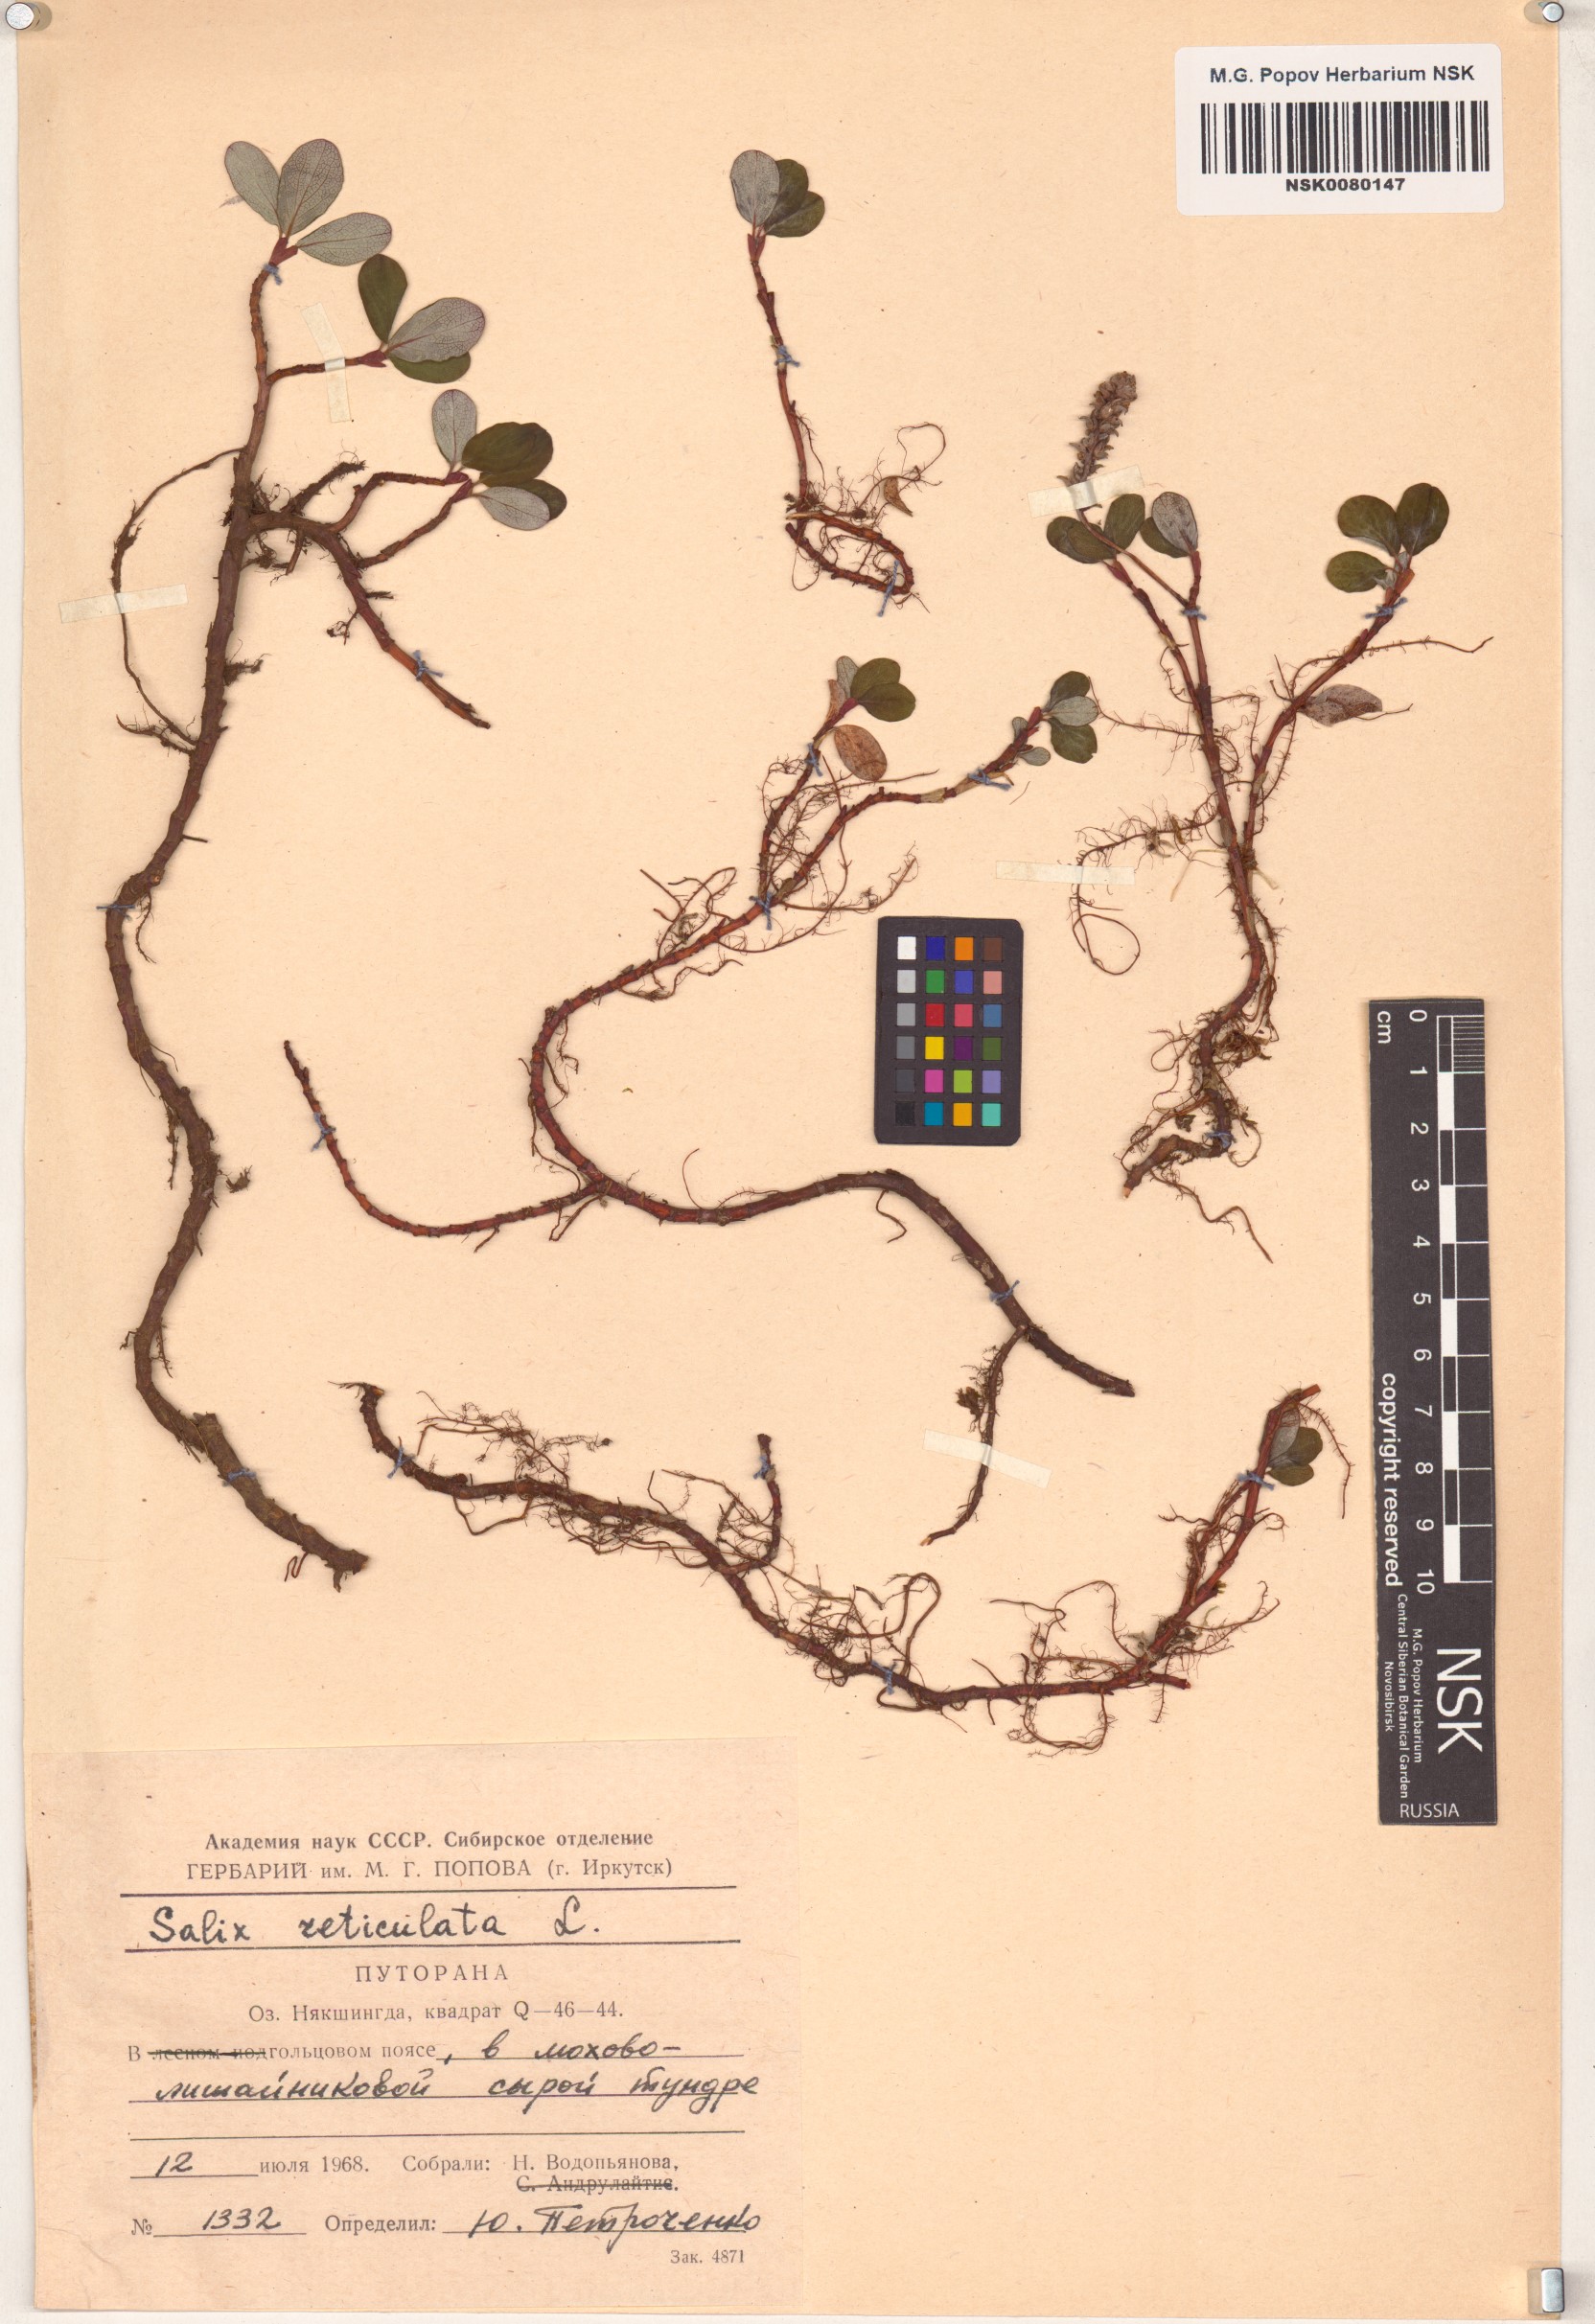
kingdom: Plantae
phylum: Tracheophyta
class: Magnoliopsida
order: Malpighiales
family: Salicaceae
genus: Salix
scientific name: Salix reticulata
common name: Net-leaved willow
